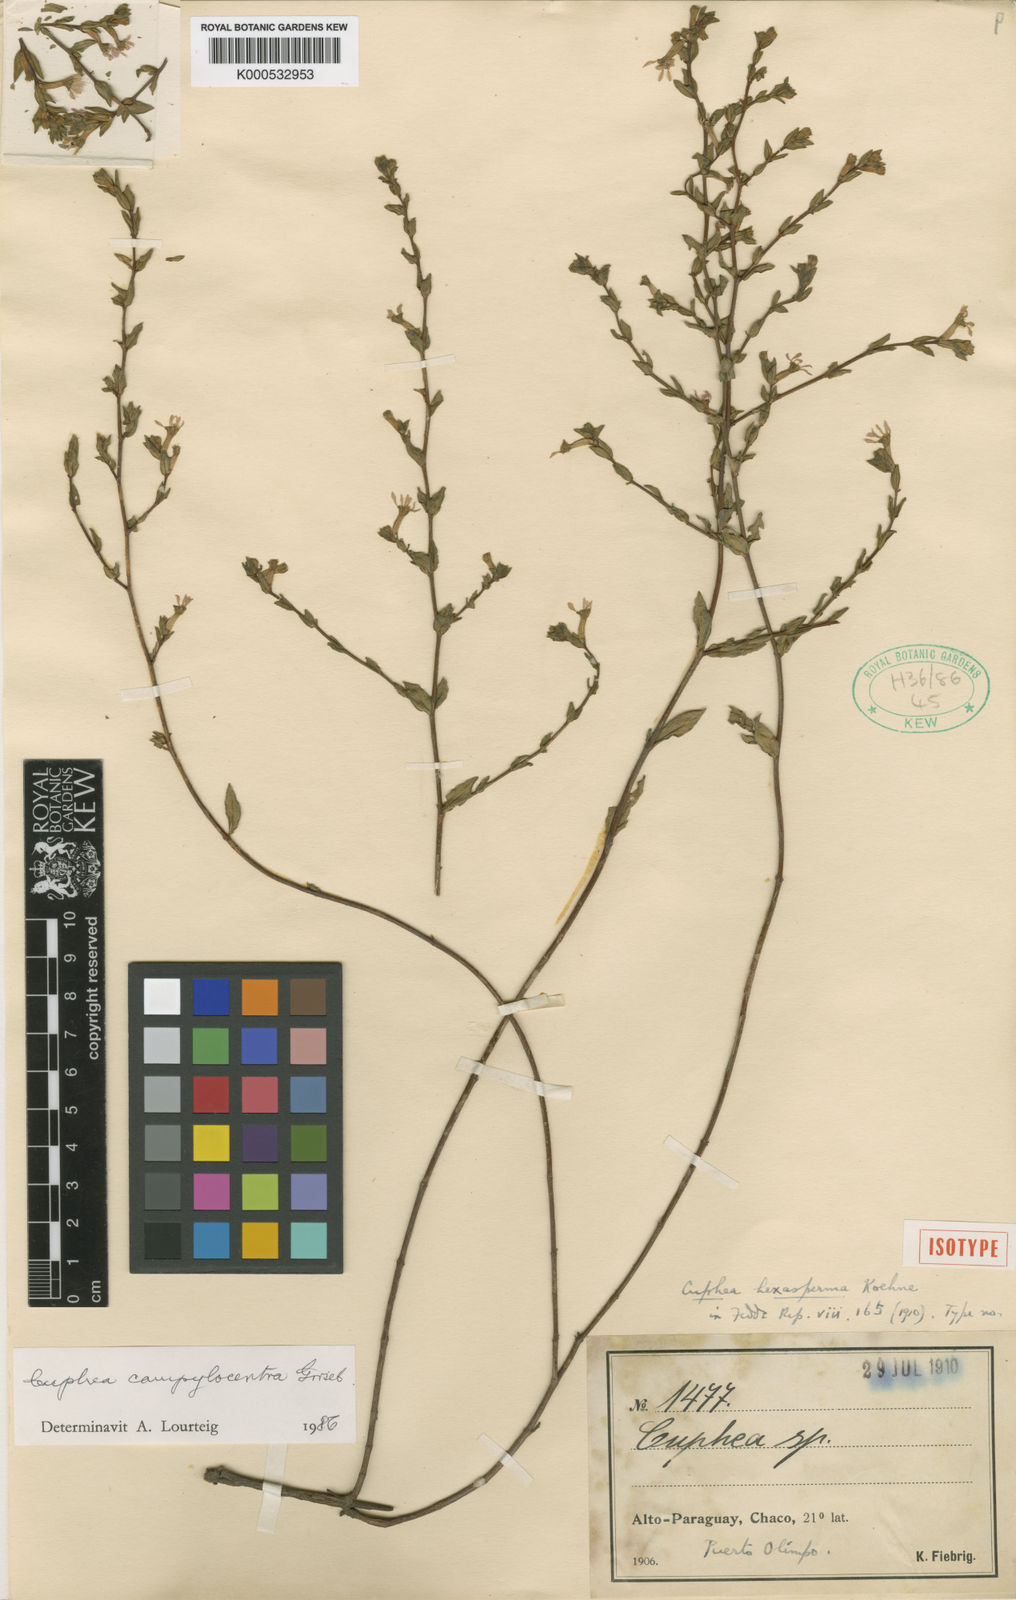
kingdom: Plantae
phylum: Tracheophyta
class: Magnoliopsida
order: Myrtales
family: Lythraceae
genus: Cuphea
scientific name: Cuphea corisperma
